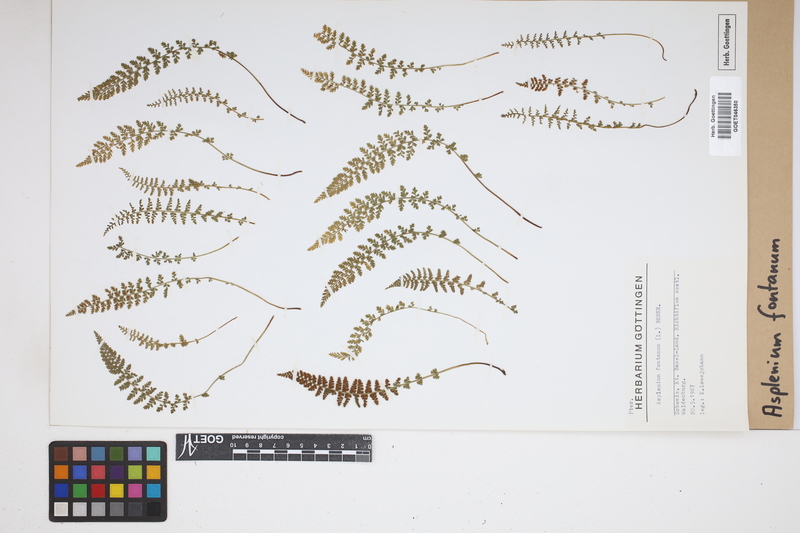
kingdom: Plantae
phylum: Tracheophyta
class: Polypodiopsida
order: Polypodiales
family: Aspleniaceae
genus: Asplenium
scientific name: Asplenium fontanum
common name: Fountain spleenwort
